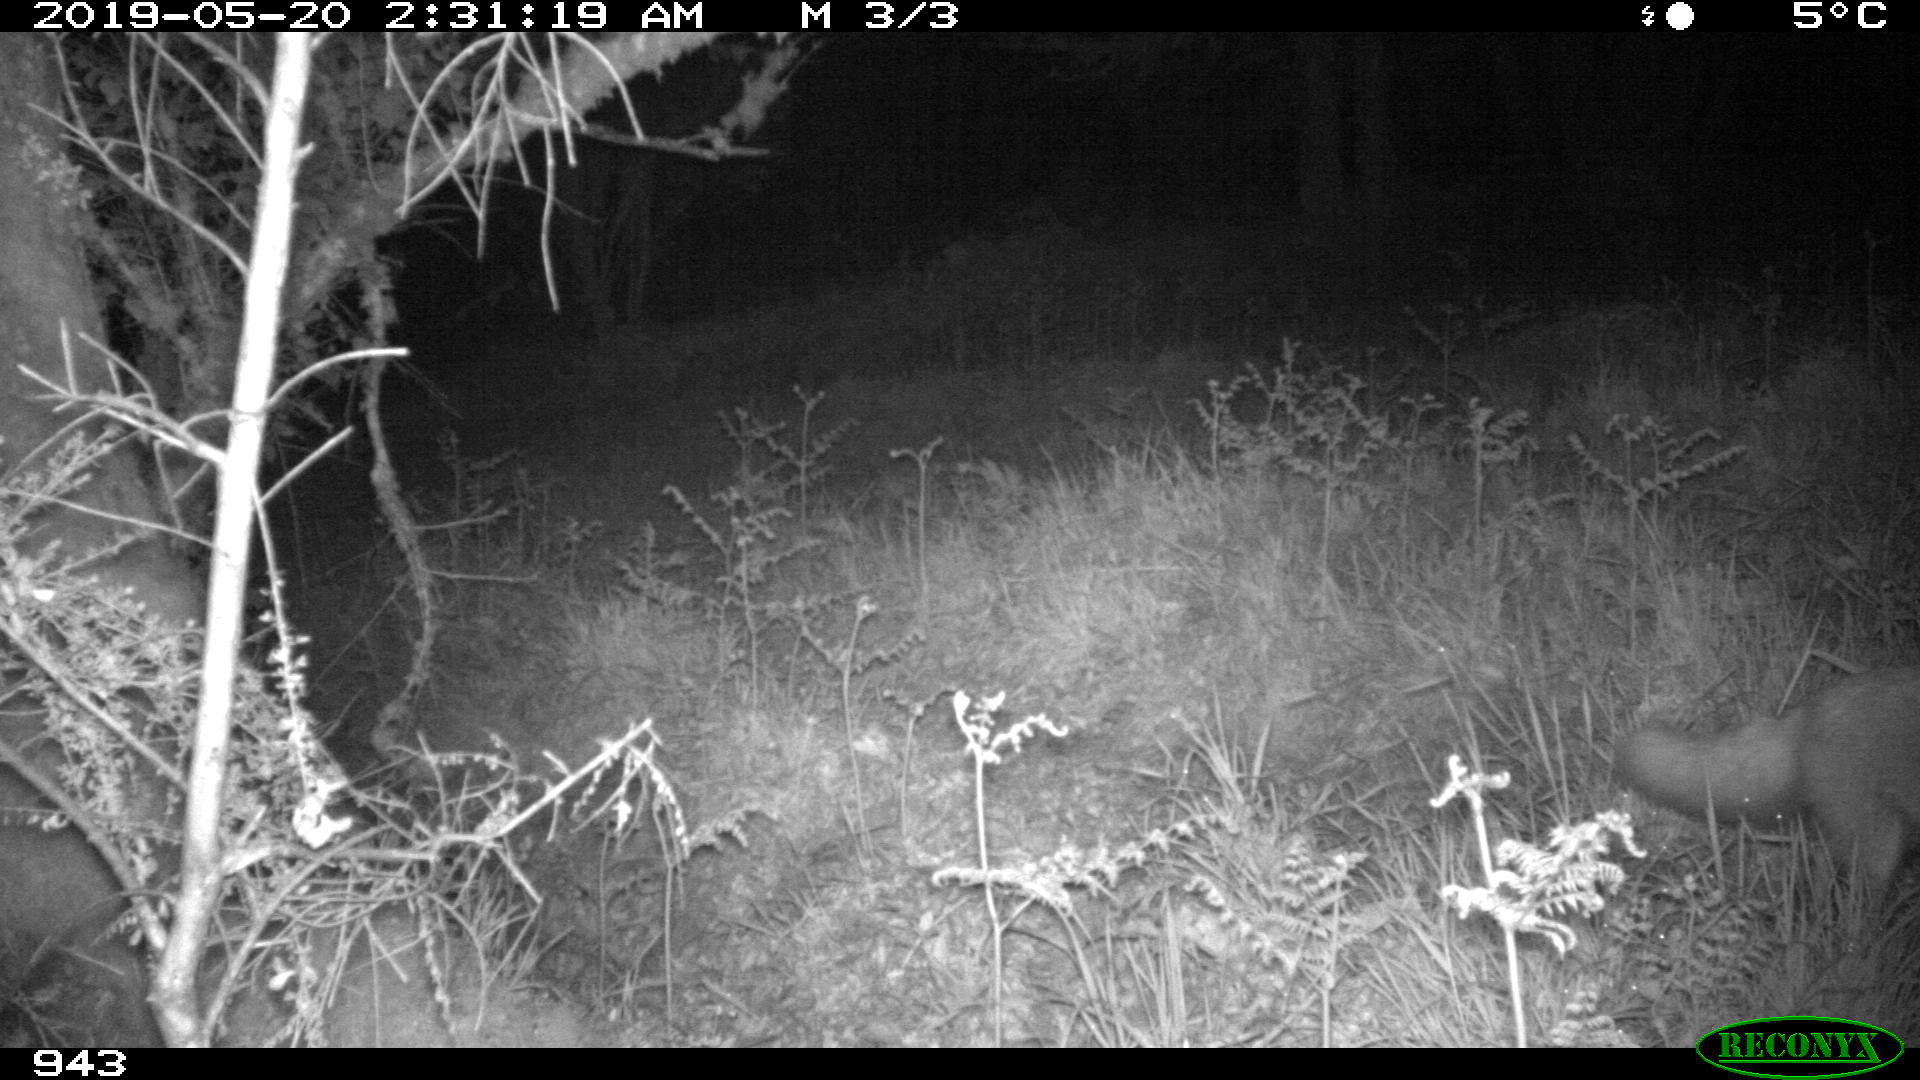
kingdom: Animalia
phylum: Chordata
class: Mammalia
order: Carnivora
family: Canidae
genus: Vulpes
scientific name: Vulpes vulpes
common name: Red fox
